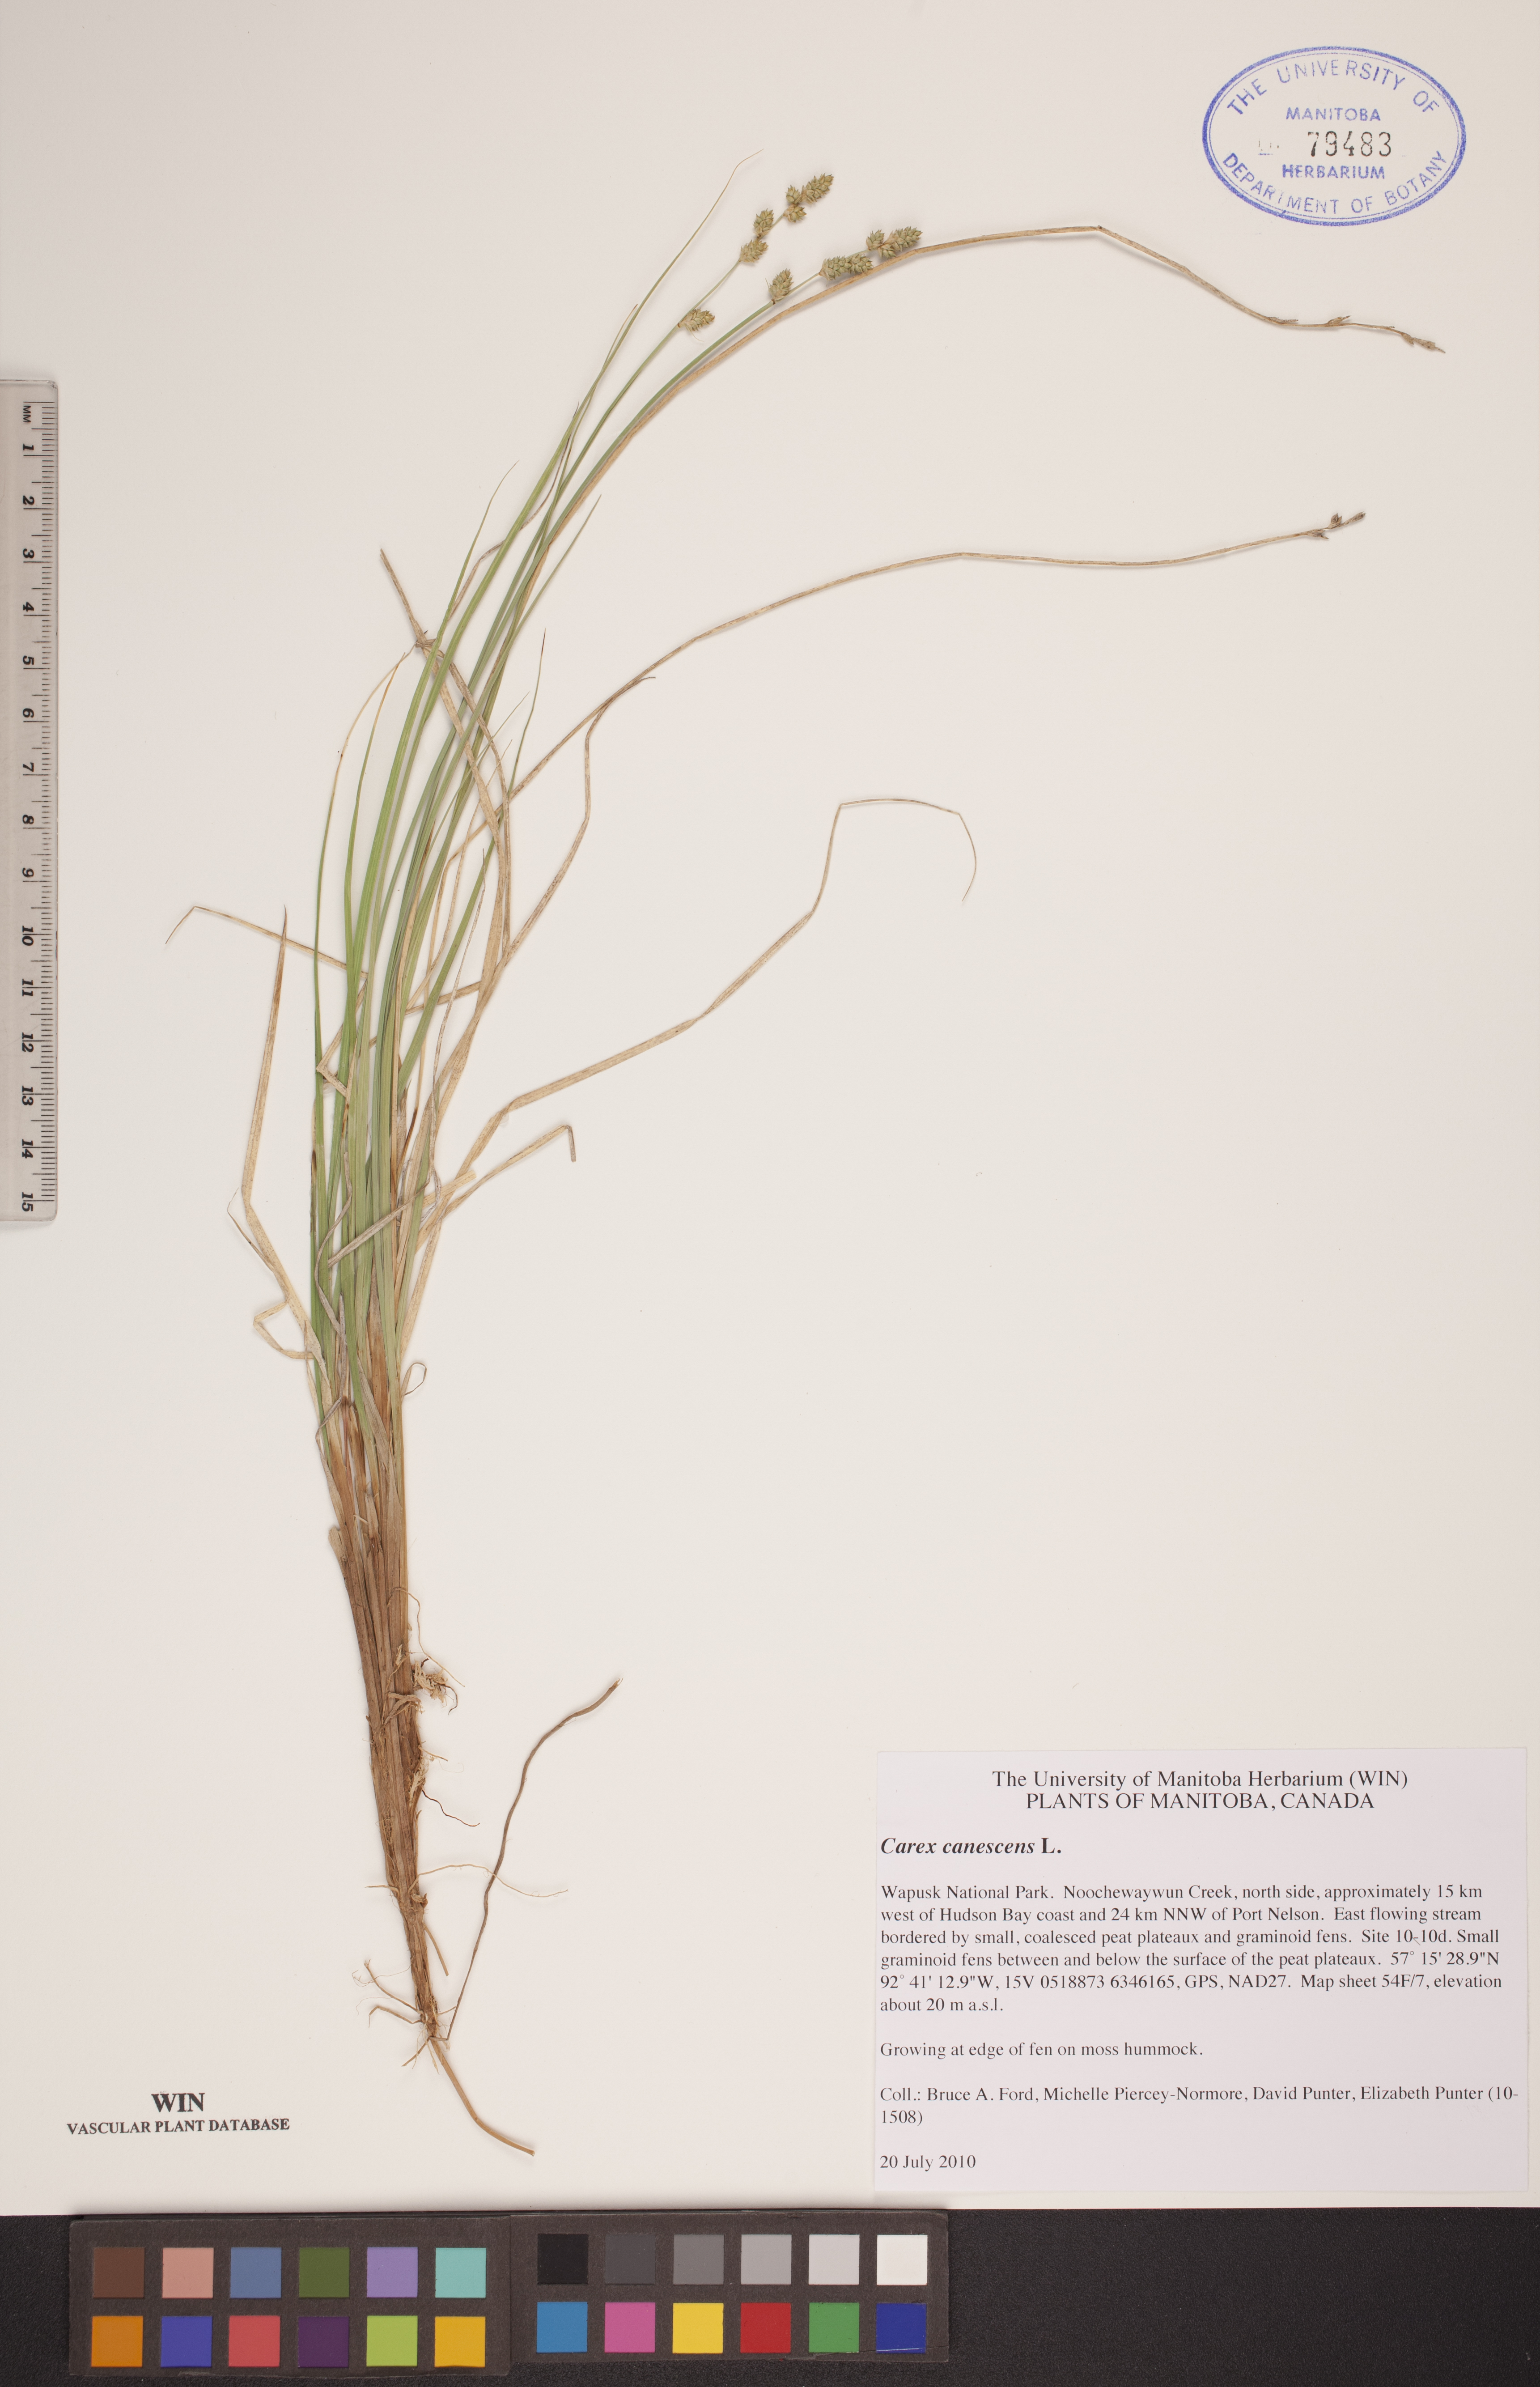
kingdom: Plantae
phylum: Tracheophyta
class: Liliopsida
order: Poales
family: Cyperaceae
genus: Carex
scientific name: Carex canescens
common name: White sedge
